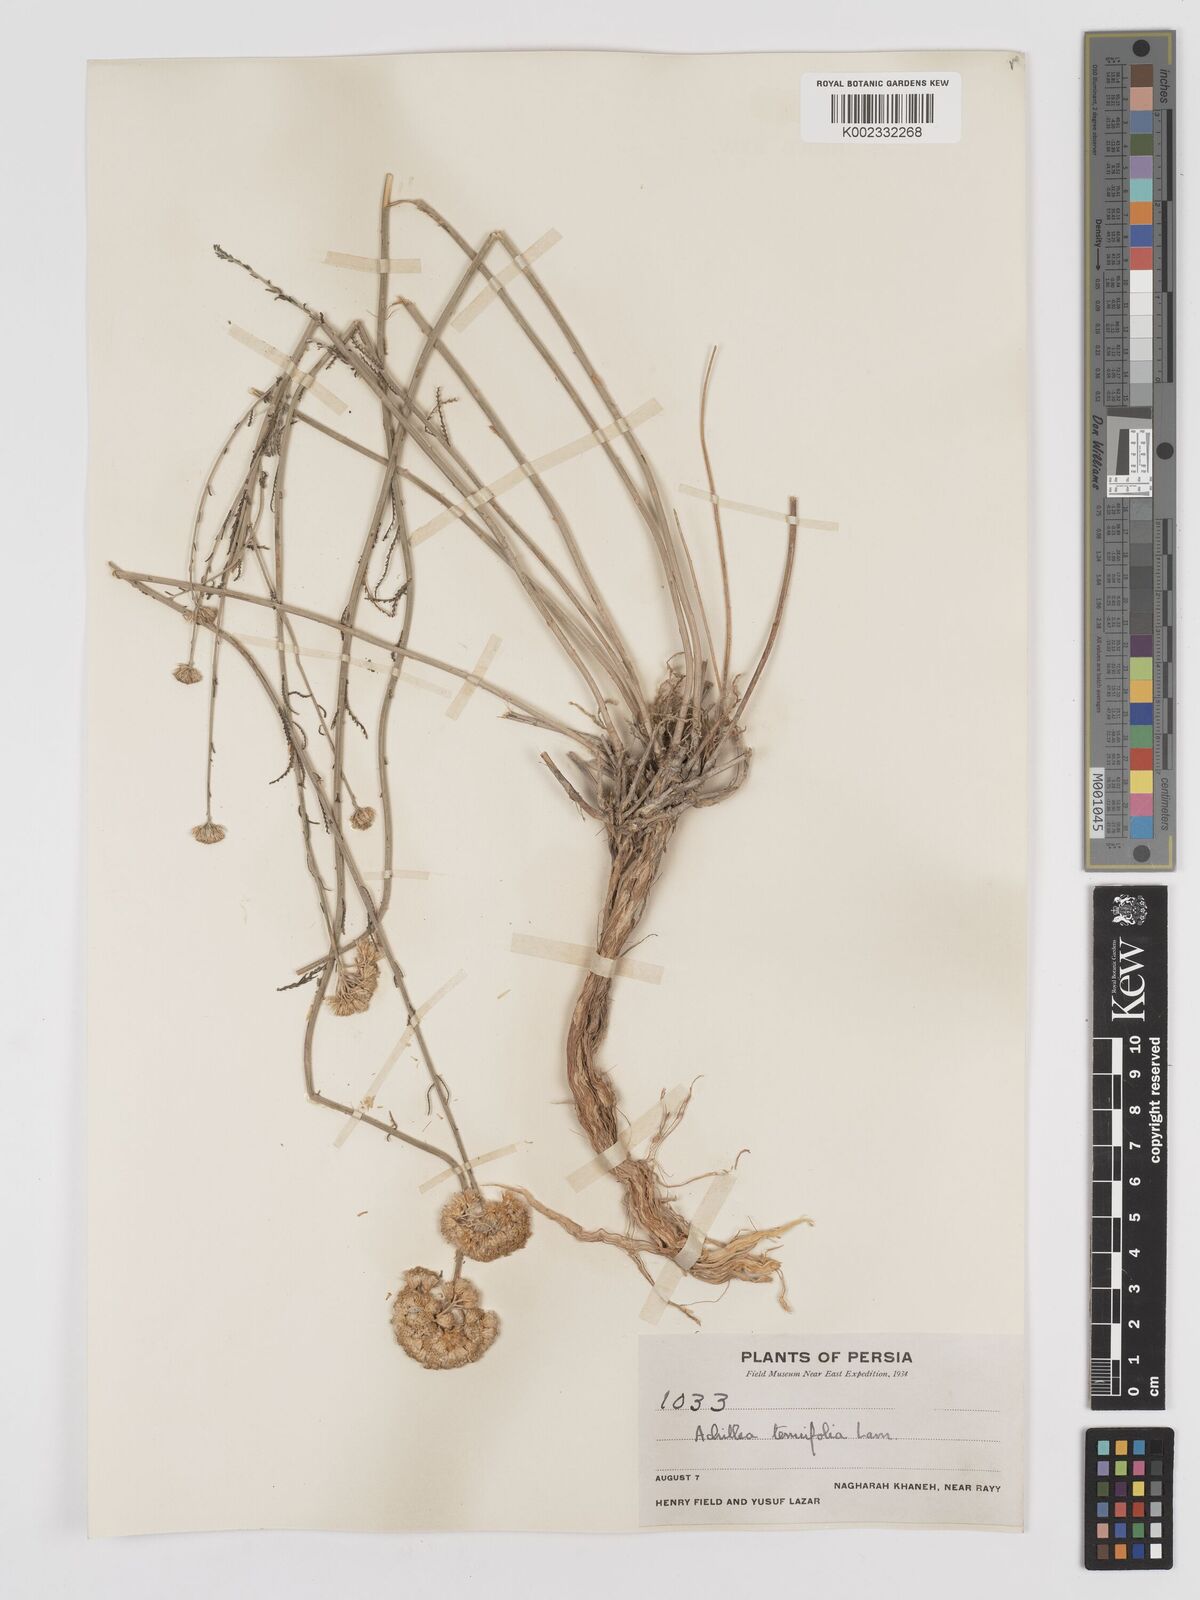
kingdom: Plantae
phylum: Tracheophyta
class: Magnoliopsida
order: Asterales
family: Asteraceae
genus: Achillea
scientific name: Achillea tenuifolia
